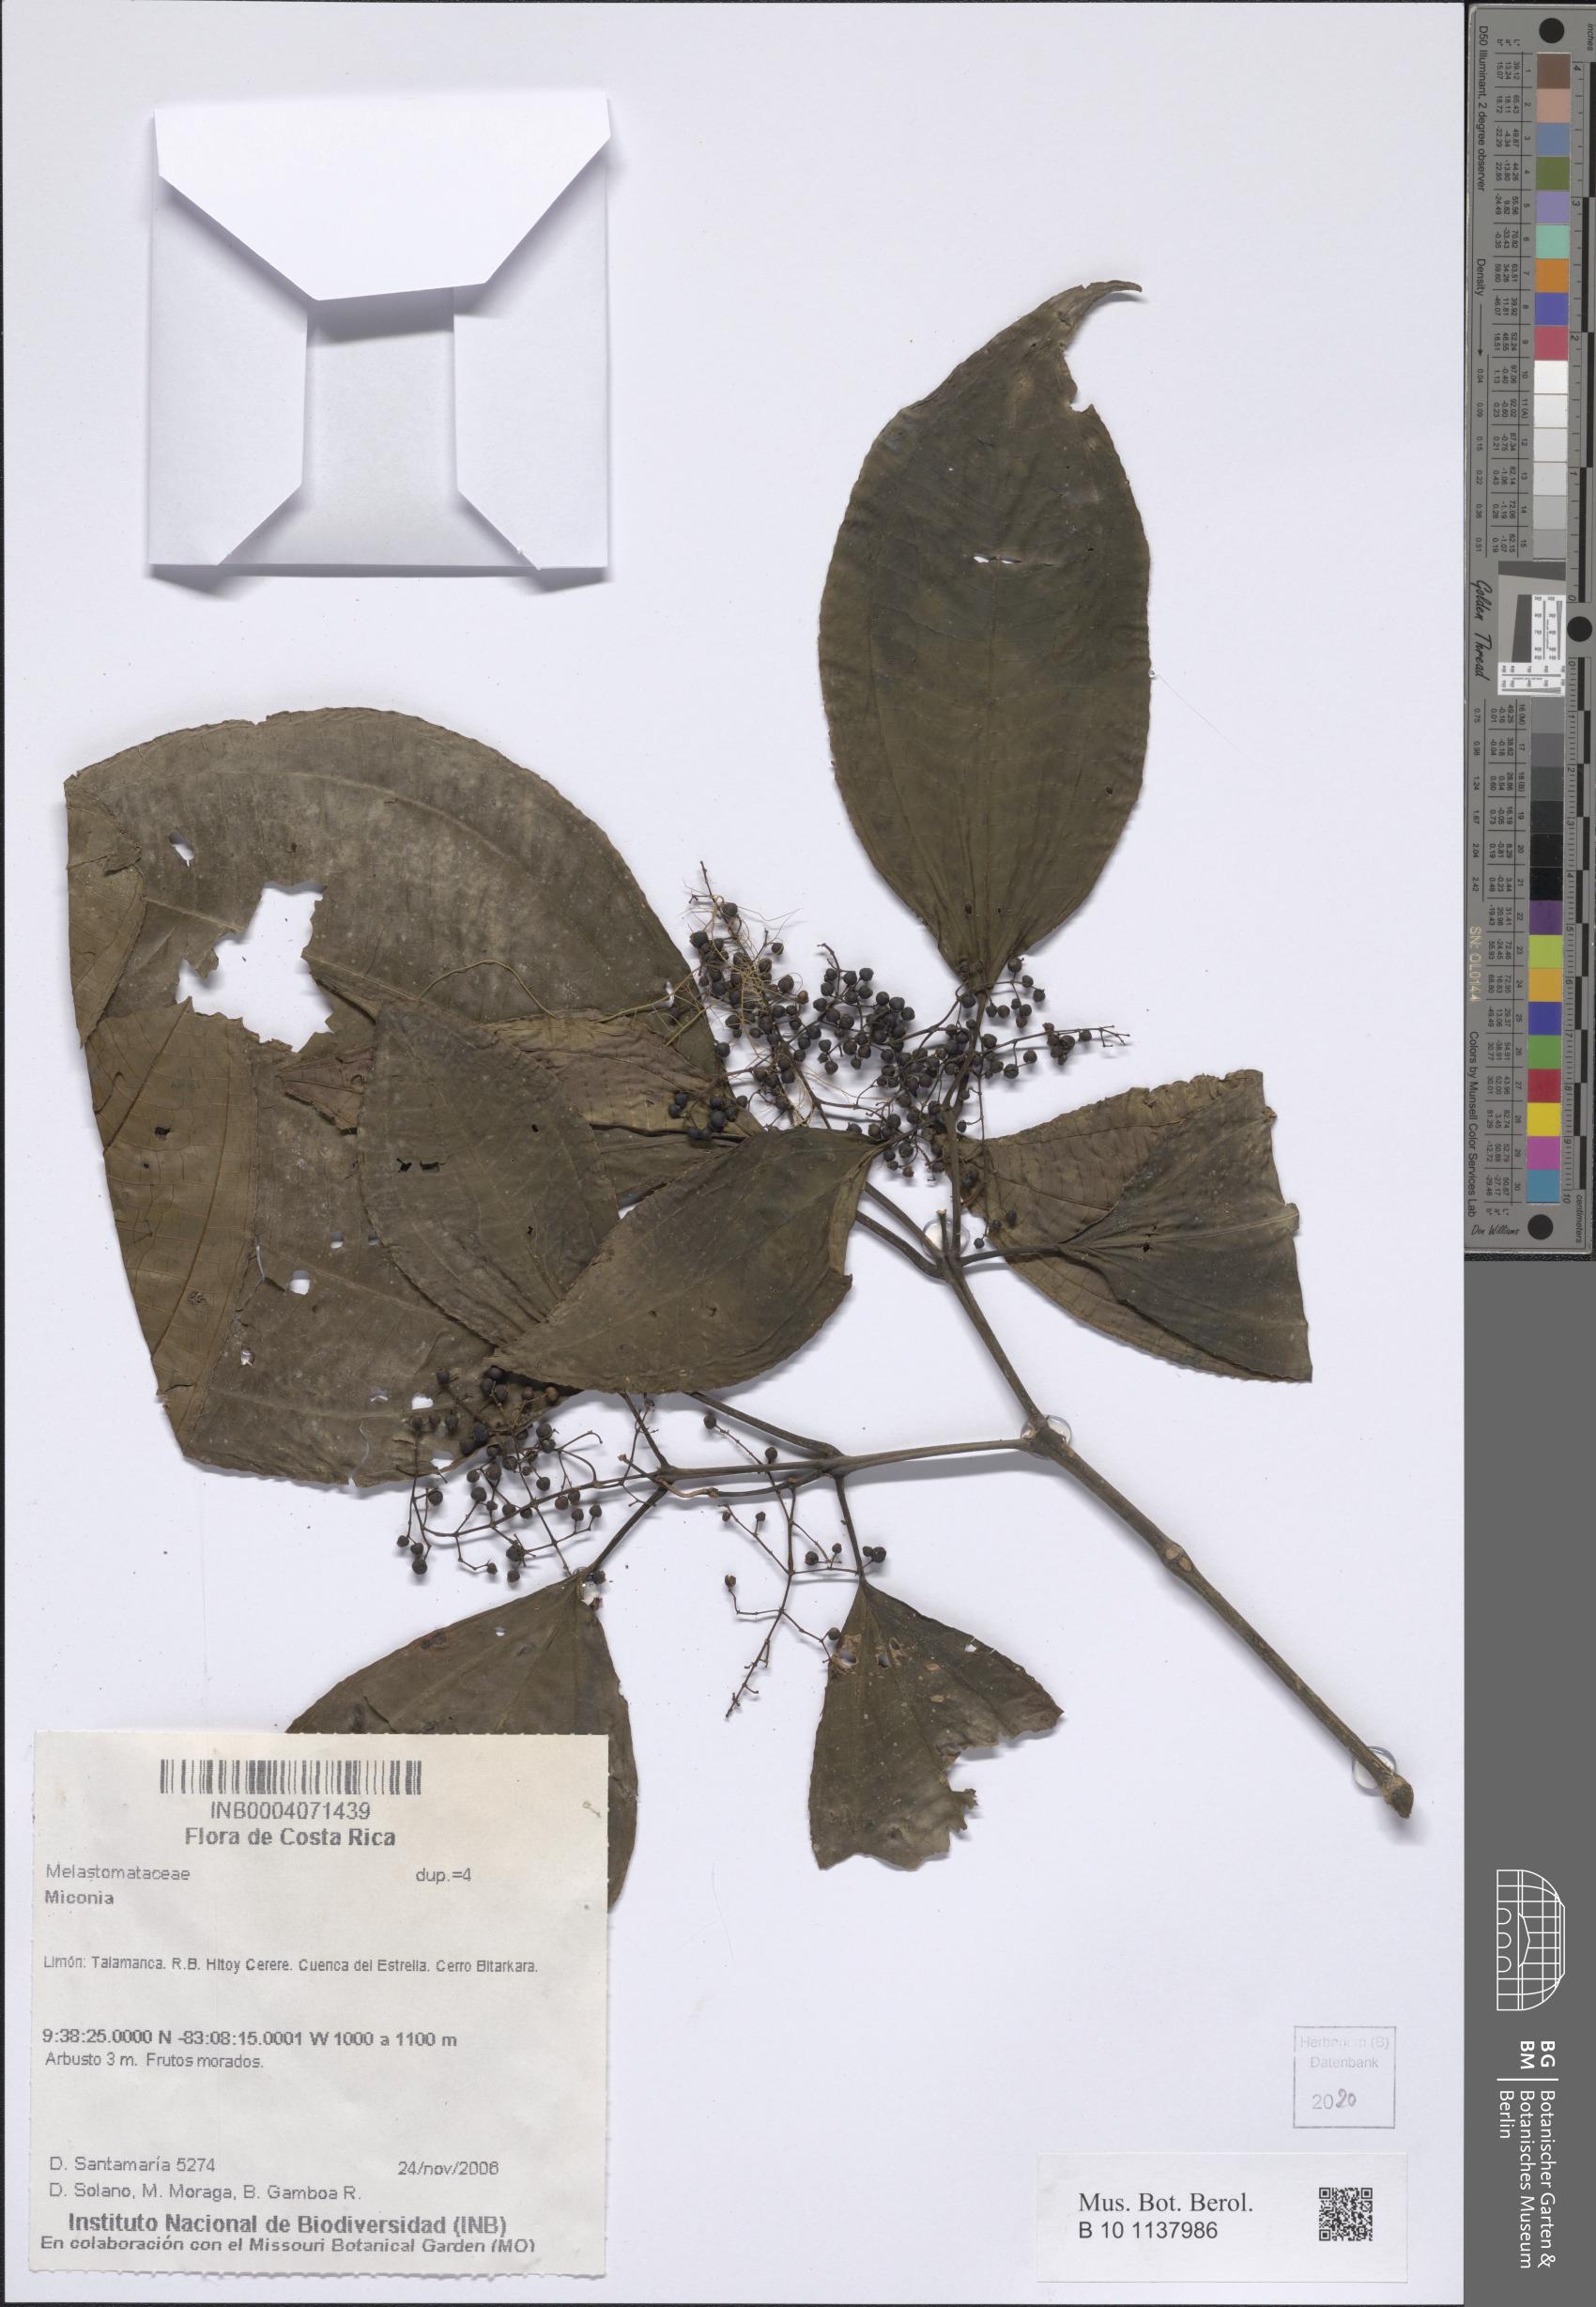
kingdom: Plantae
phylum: Tracheophyta
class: Magnoliopsida
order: Myrtales
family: Melastomataceae
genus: Miconia
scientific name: Miconia
